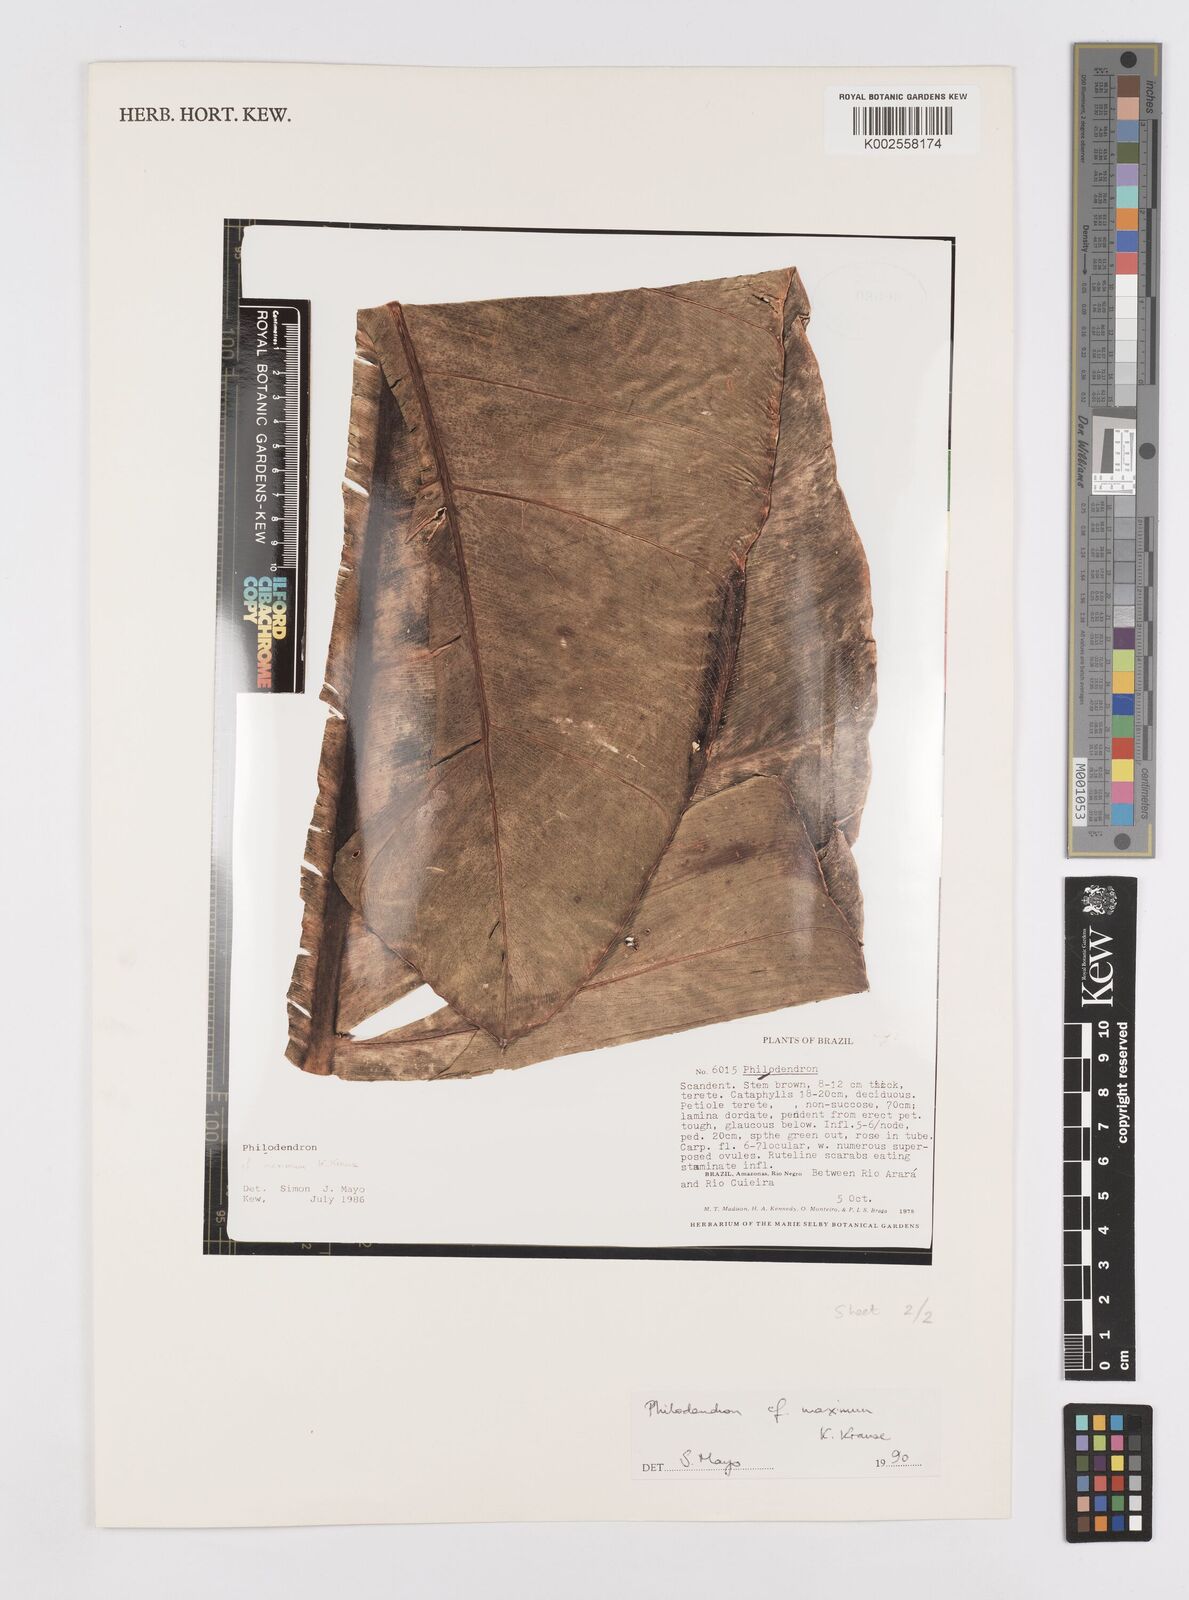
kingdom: Plantae
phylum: Tracheophyta
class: Liliopsida
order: Alismatales
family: Araceae
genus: Philodendron
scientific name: Philodendron maximum
